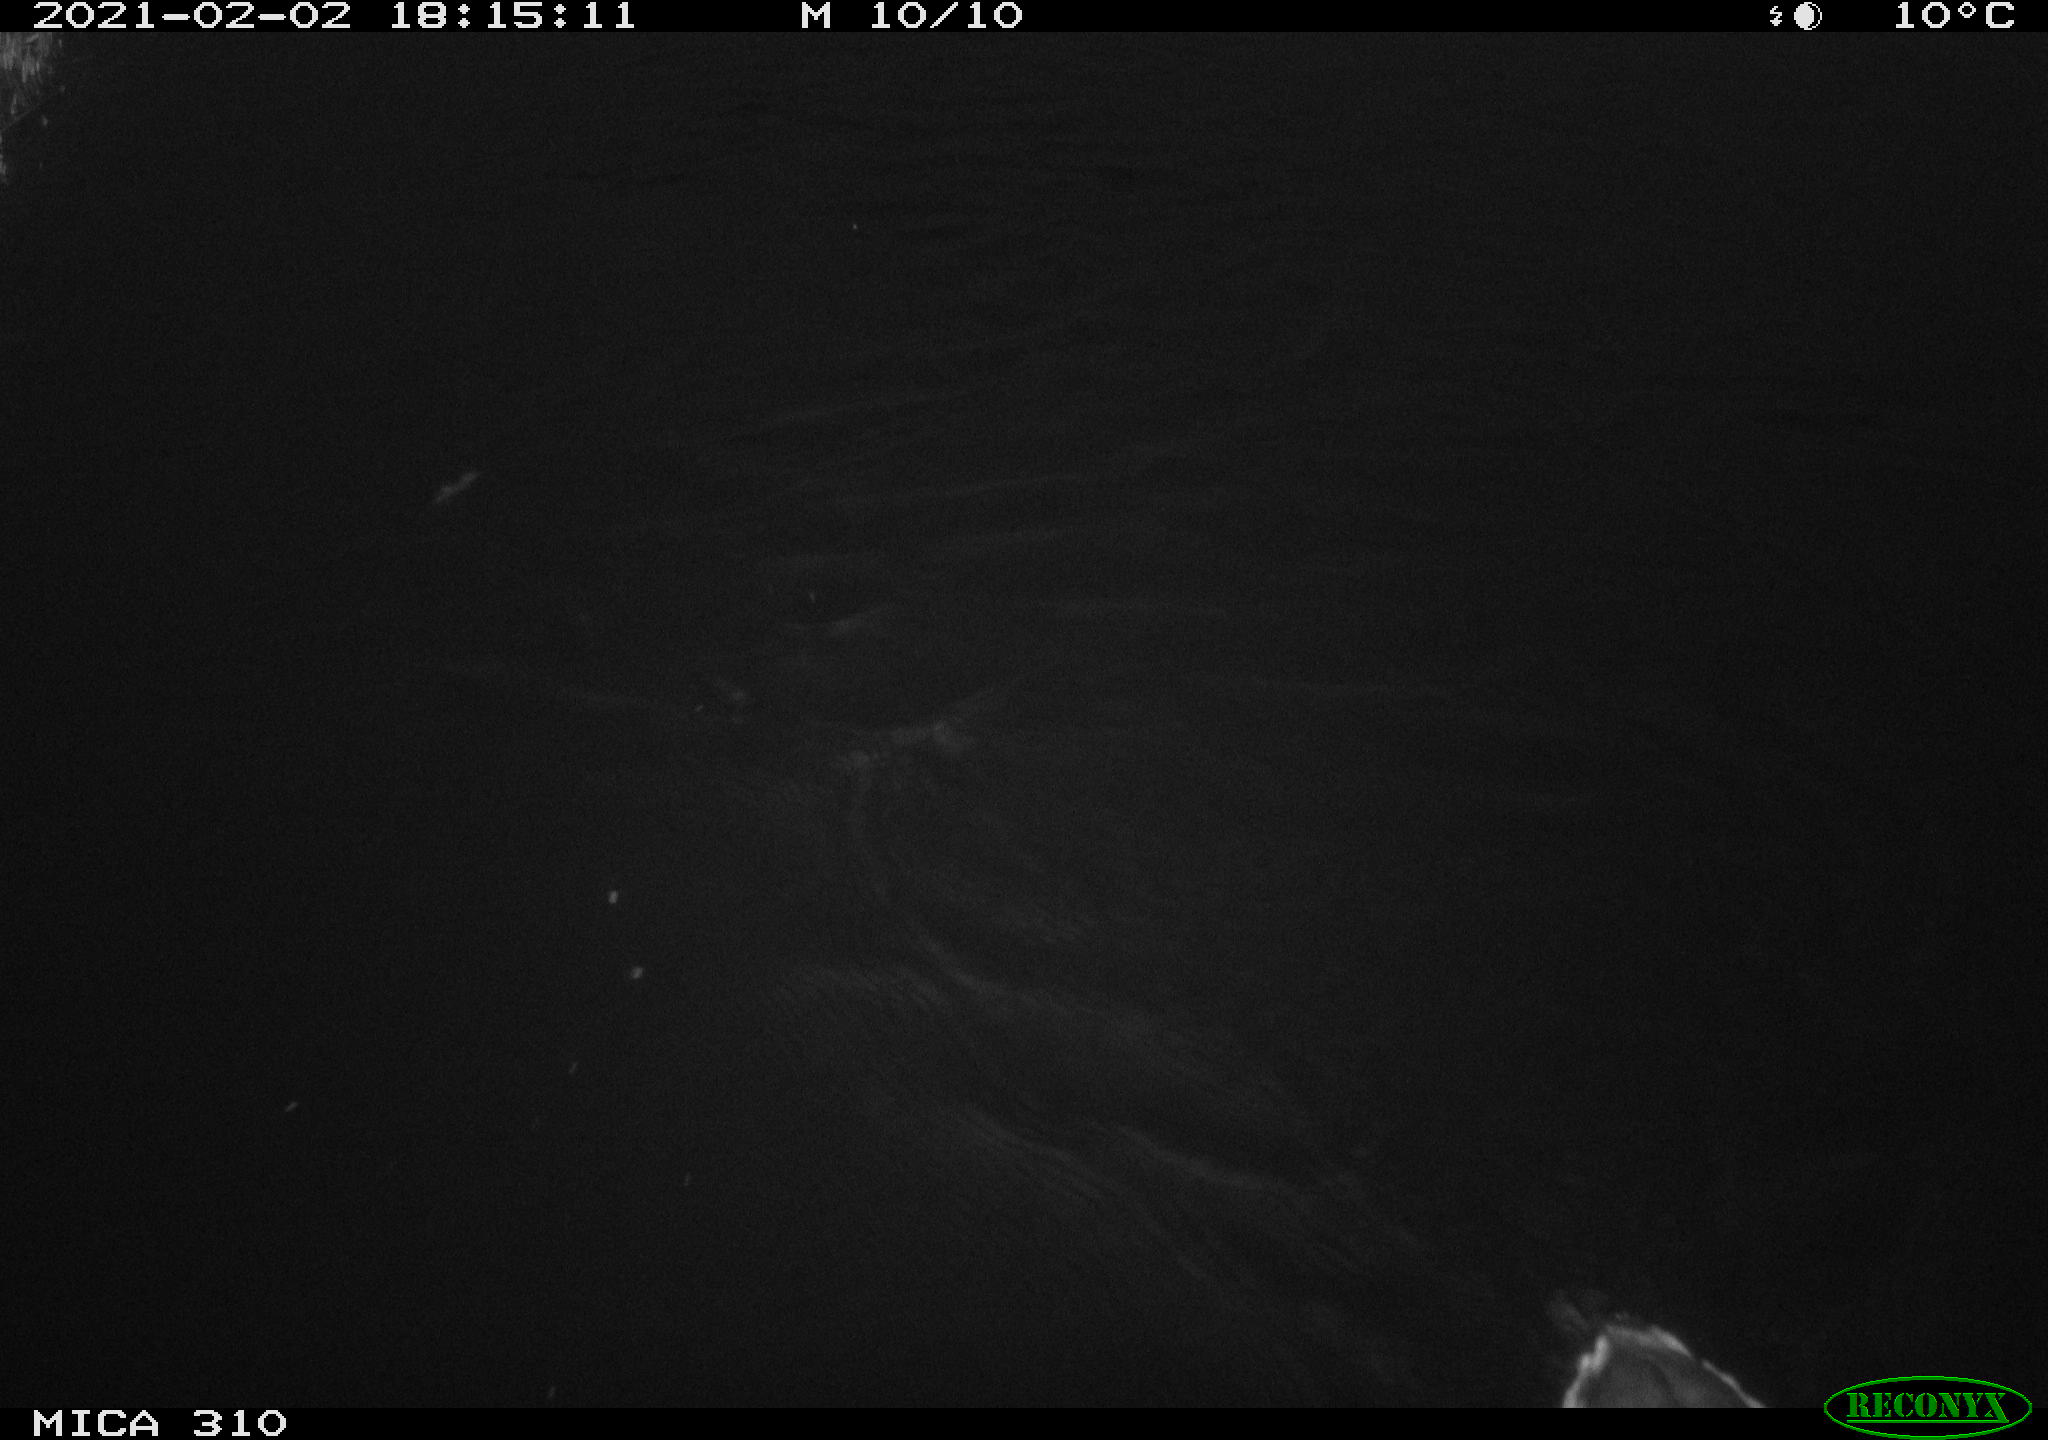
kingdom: Animalia
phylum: Chordata
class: Aves
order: Gruiformes
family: Rallidae
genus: Fulica
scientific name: Fulica atra
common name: Eurasian coot
